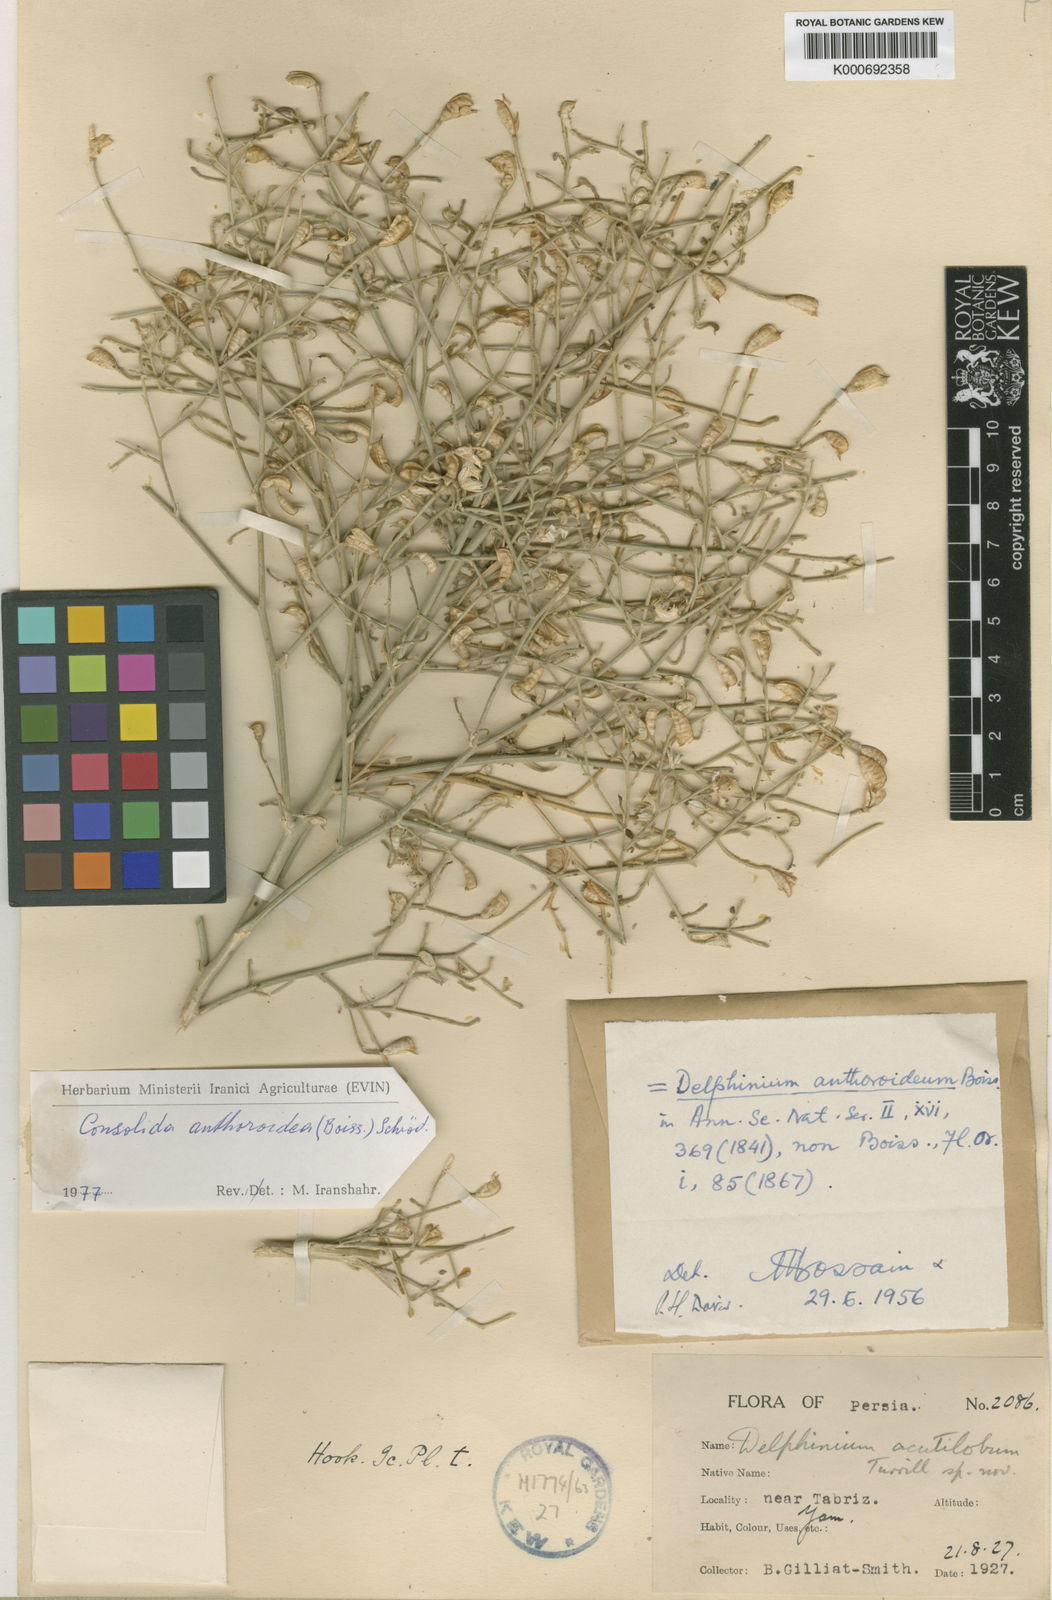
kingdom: Plantae
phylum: Tracheophyta
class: Magnoliopsida
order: Ranunculales
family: Ranunculaceae
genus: Delphinium
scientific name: Delphinium
